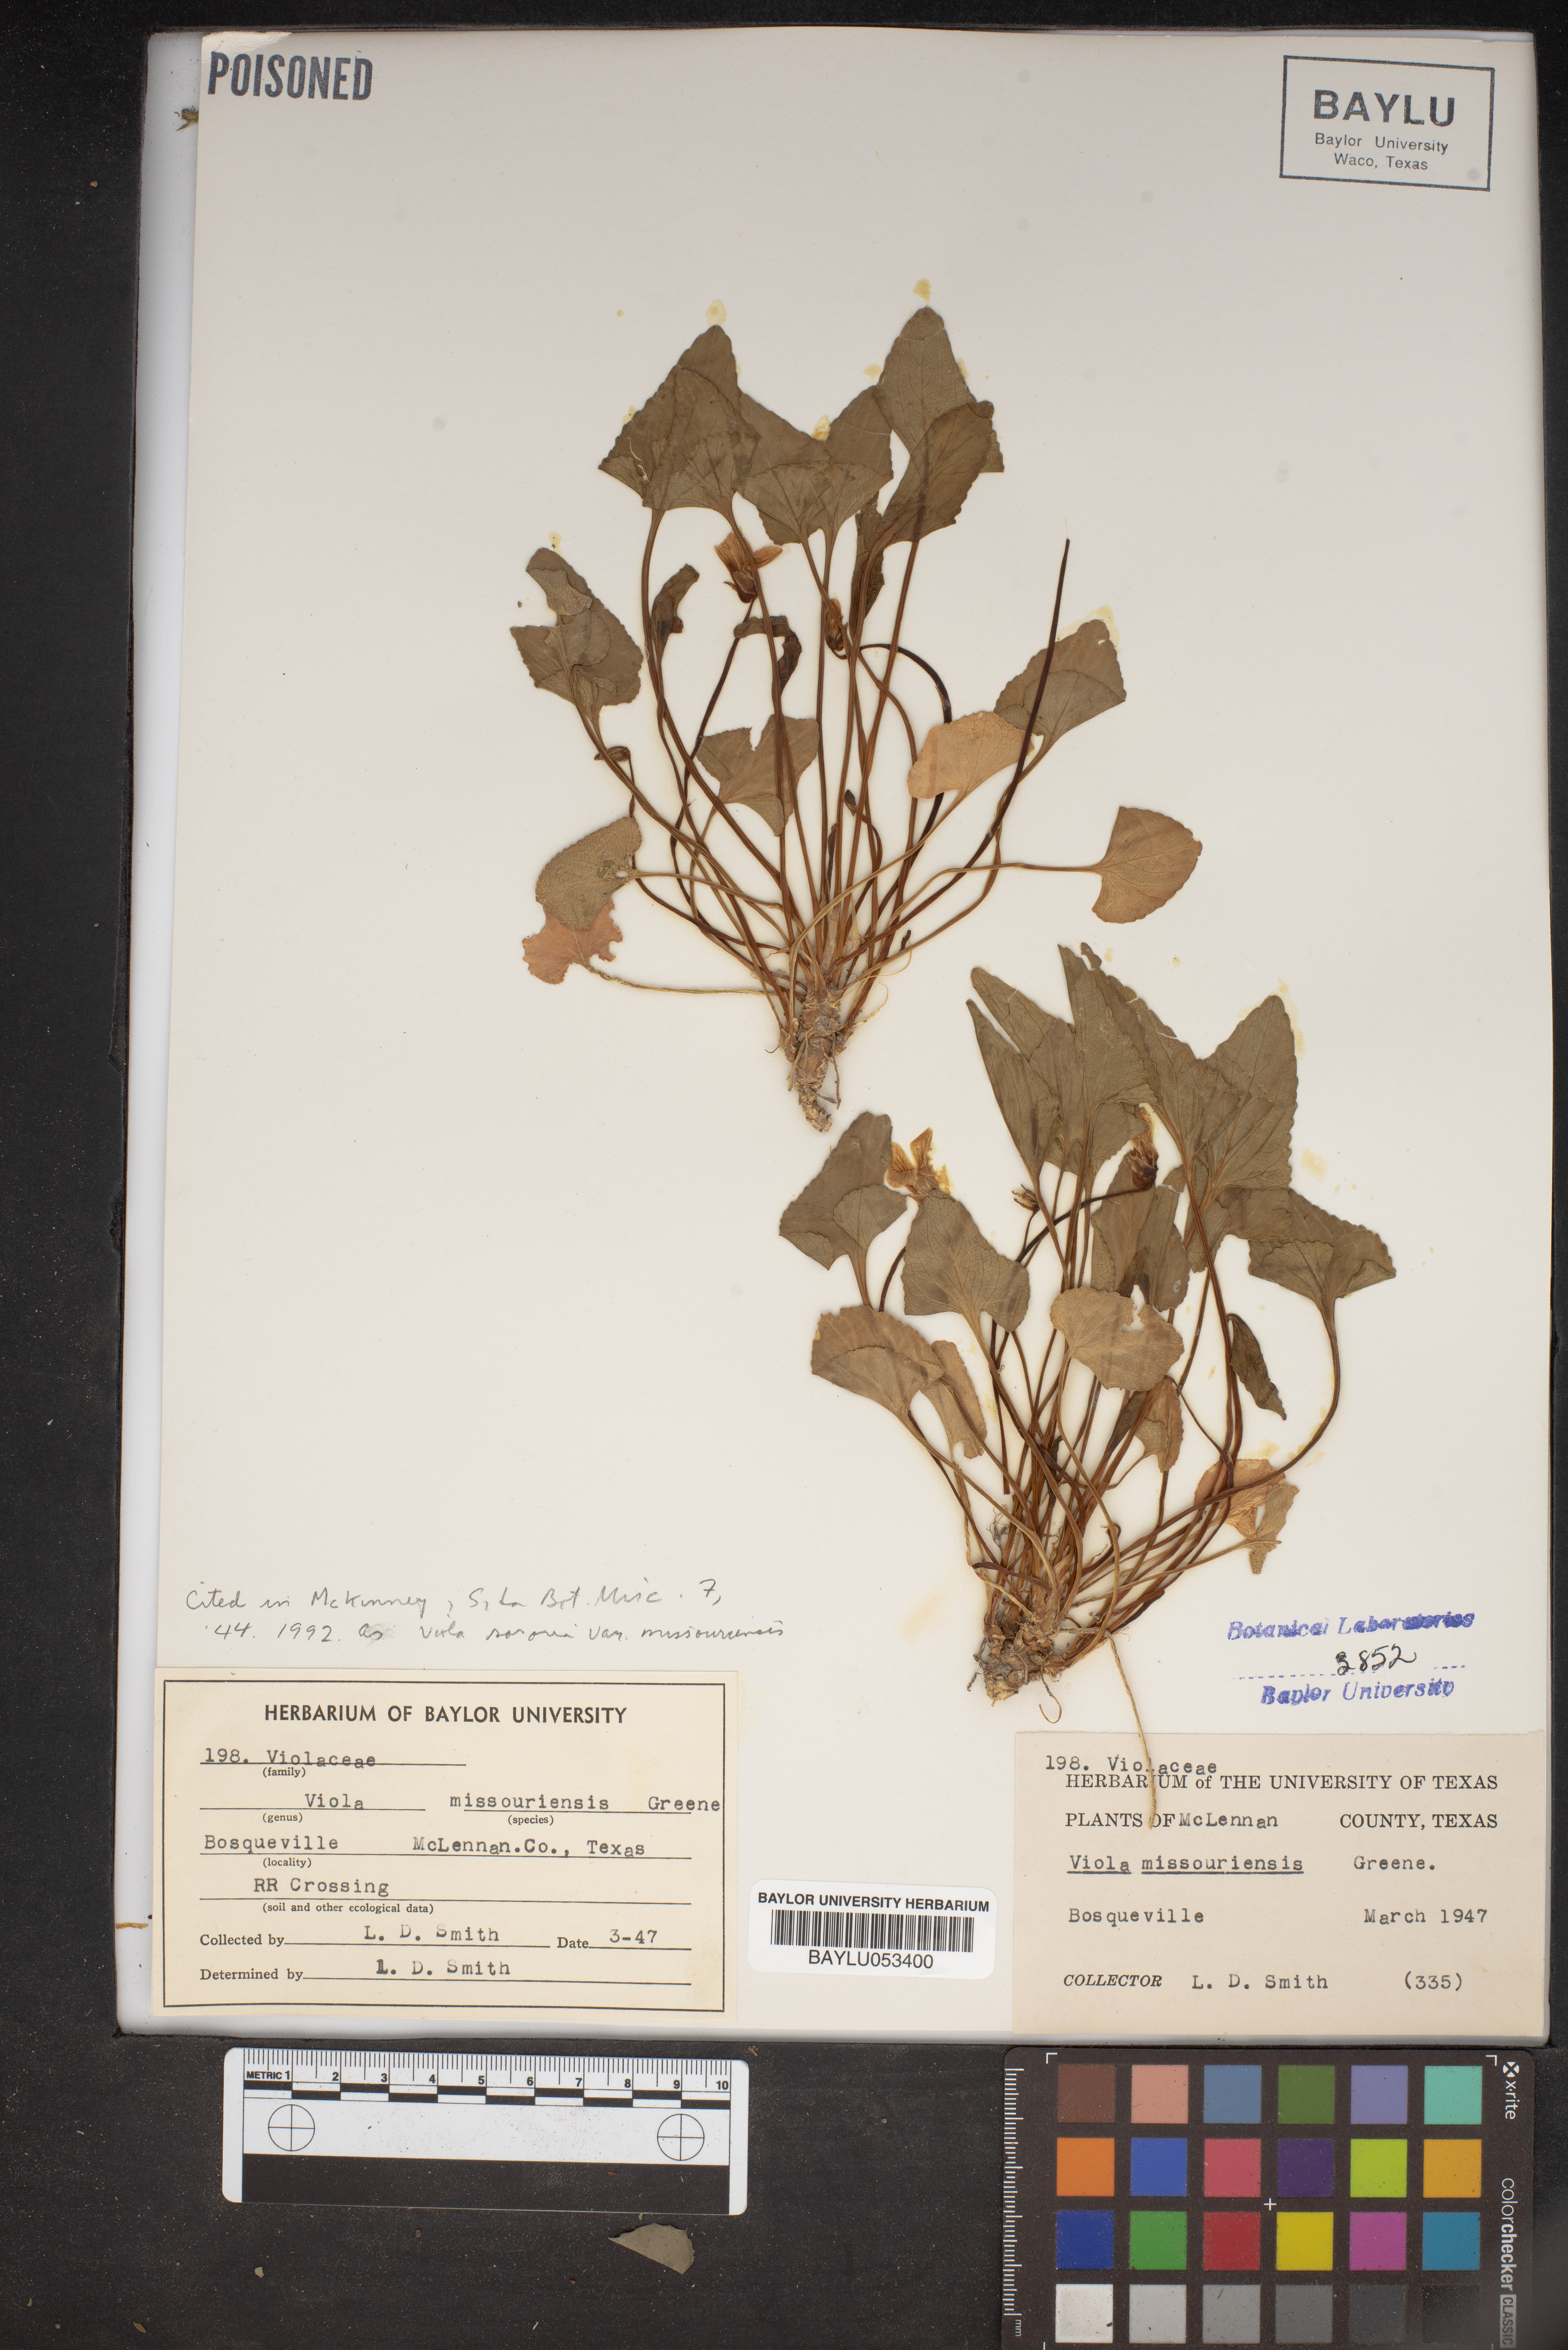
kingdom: Plantae
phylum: Tracheophyta
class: Magnoliopsida
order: Malpighiales
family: Violaceae
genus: Viola
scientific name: Viola missouriensis
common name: Missouri violet
